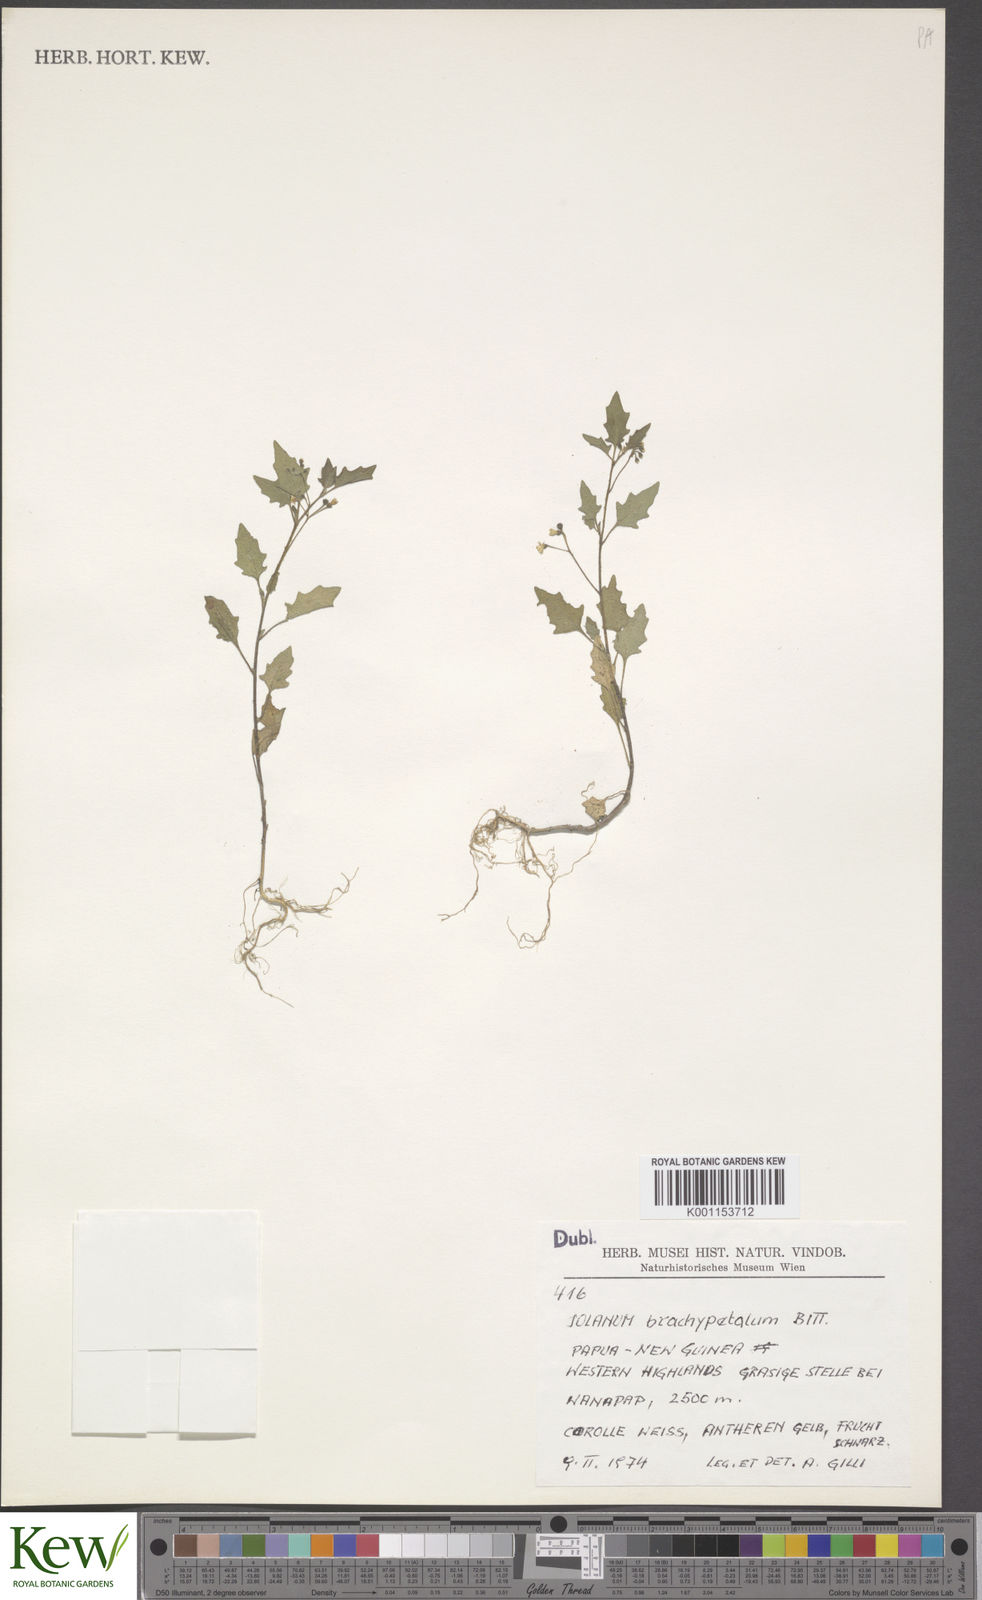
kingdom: Plantae
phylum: Tracheophyta
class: Magnoliopsida
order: Solanales
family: Solanaceae
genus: Solanum
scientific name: Solanum opacum
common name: Green-berry nightshade
